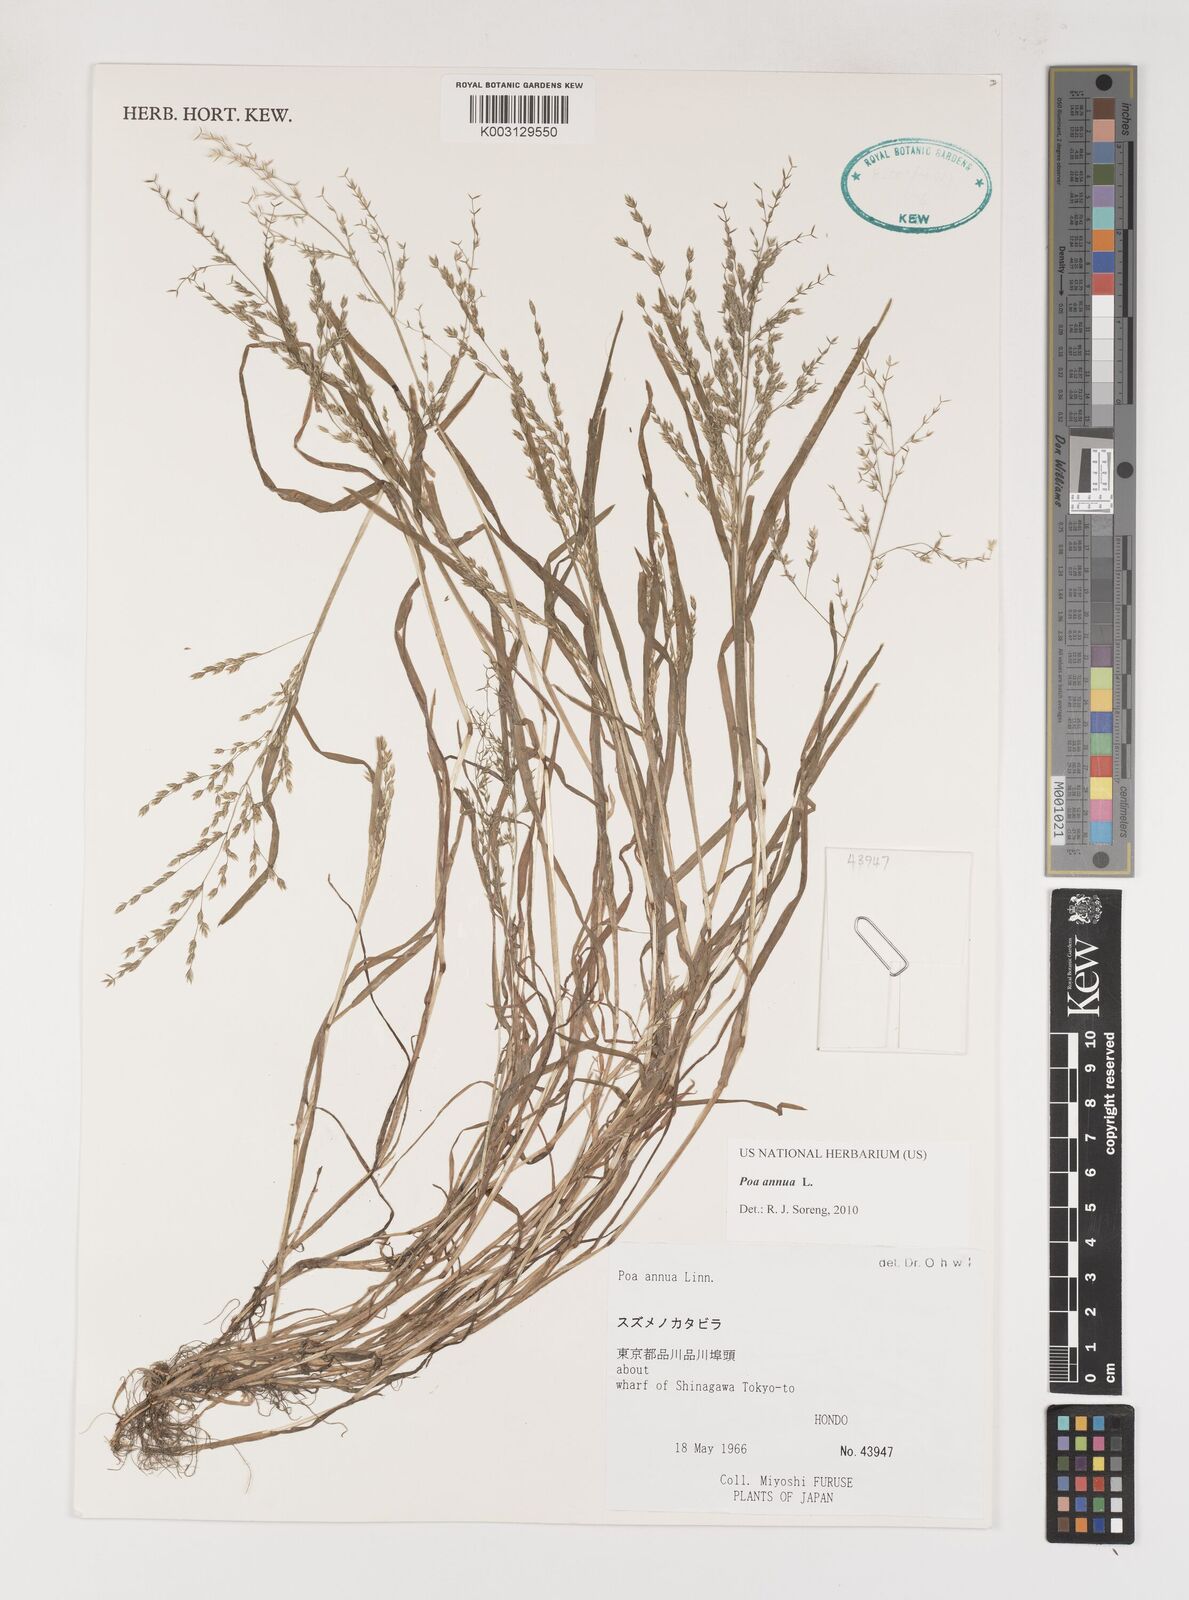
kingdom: Plantae
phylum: Tracheophyta
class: Liliopsida
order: Poales
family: Poaceae
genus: Poa
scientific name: Poa annua
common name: Annual bluegrass
